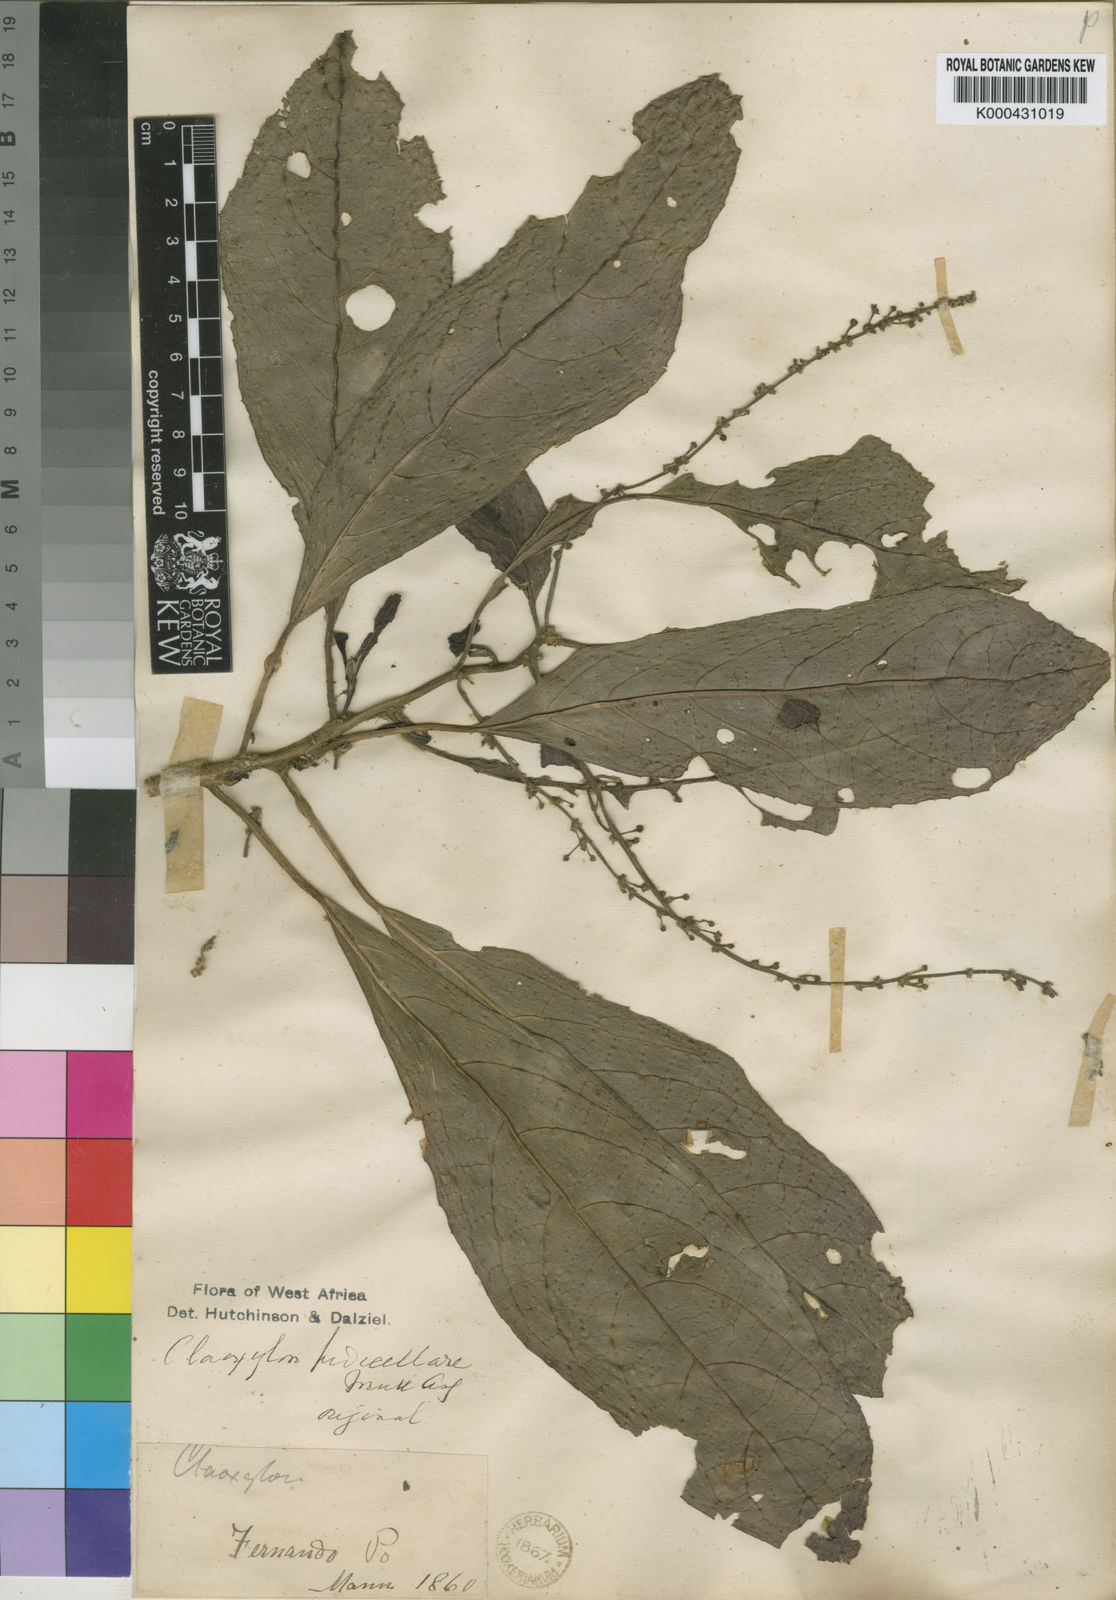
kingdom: Plantae
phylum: Tracheophyta
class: Magnoliopsida
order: Malpighiales
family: Euphorbiaceae
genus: Discoclaoxylon
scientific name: Discoclaoxylon
